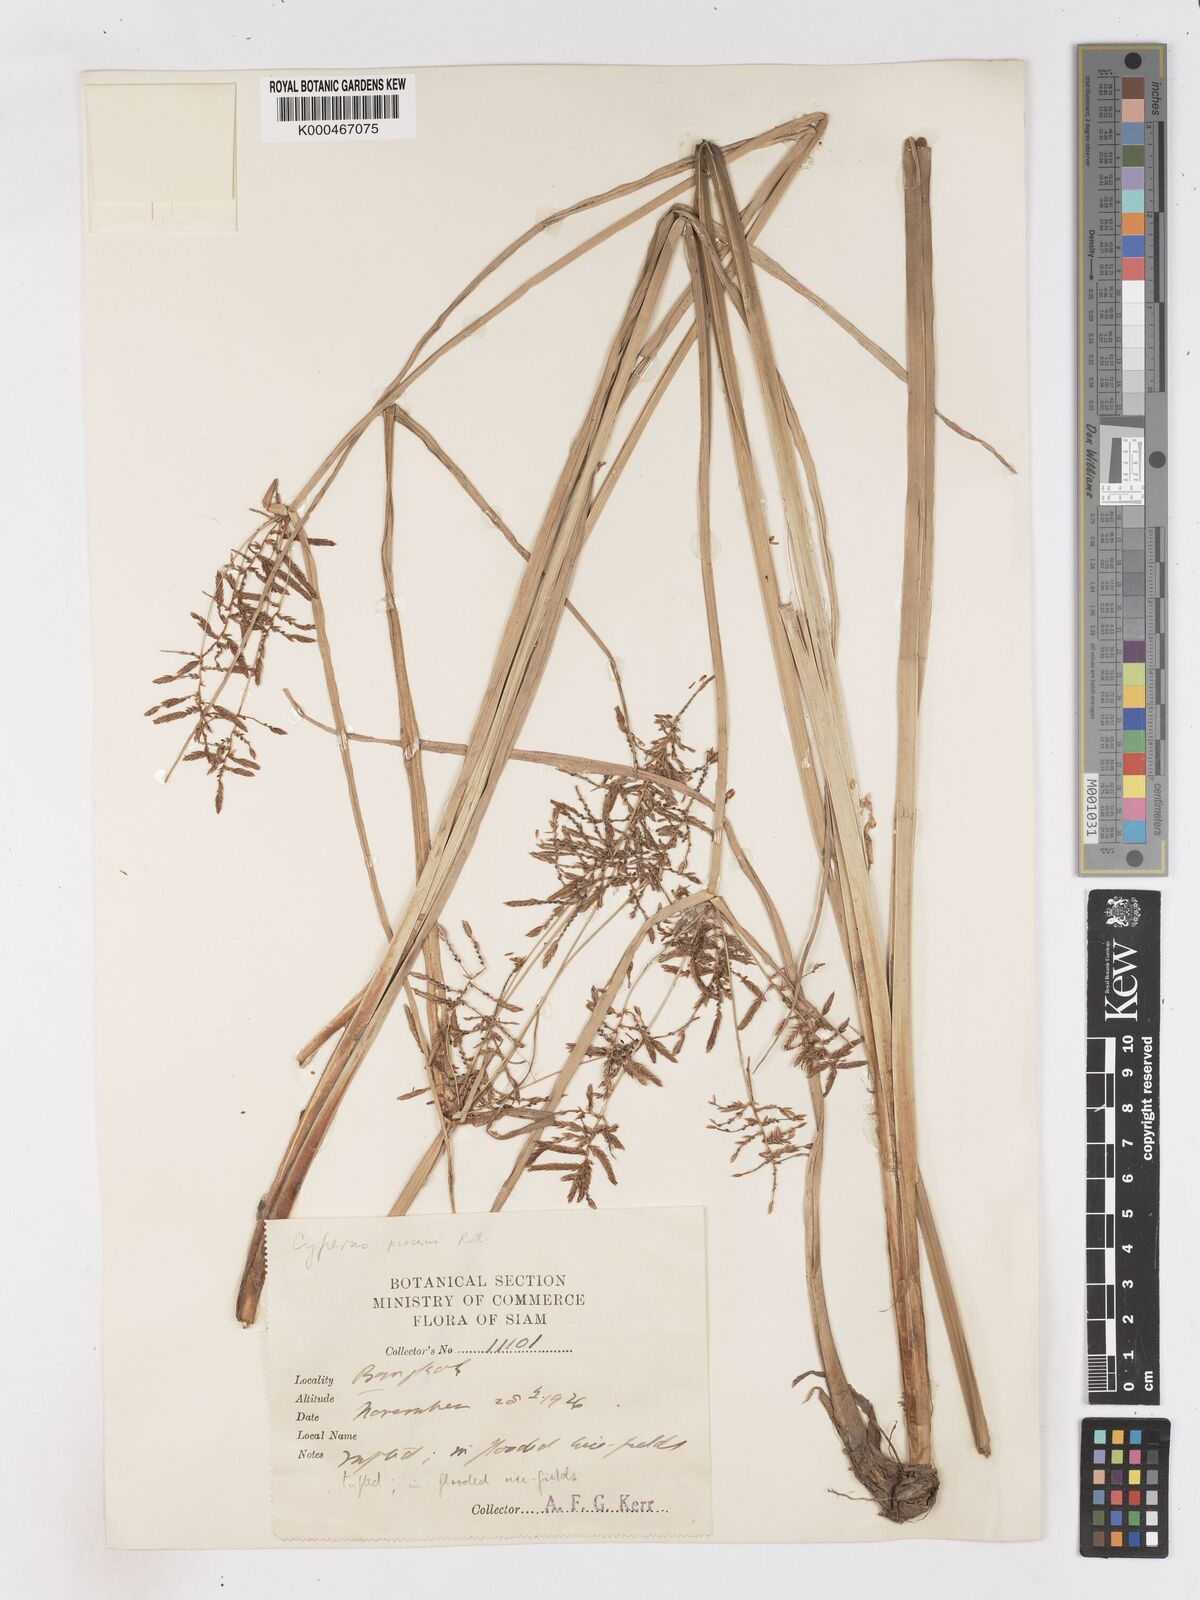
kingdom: Plantae
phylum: Tracheophyta
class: Liliopsida
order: Poales
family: Cyperaceae
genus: Cyperus
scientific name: Cyperus procerus
